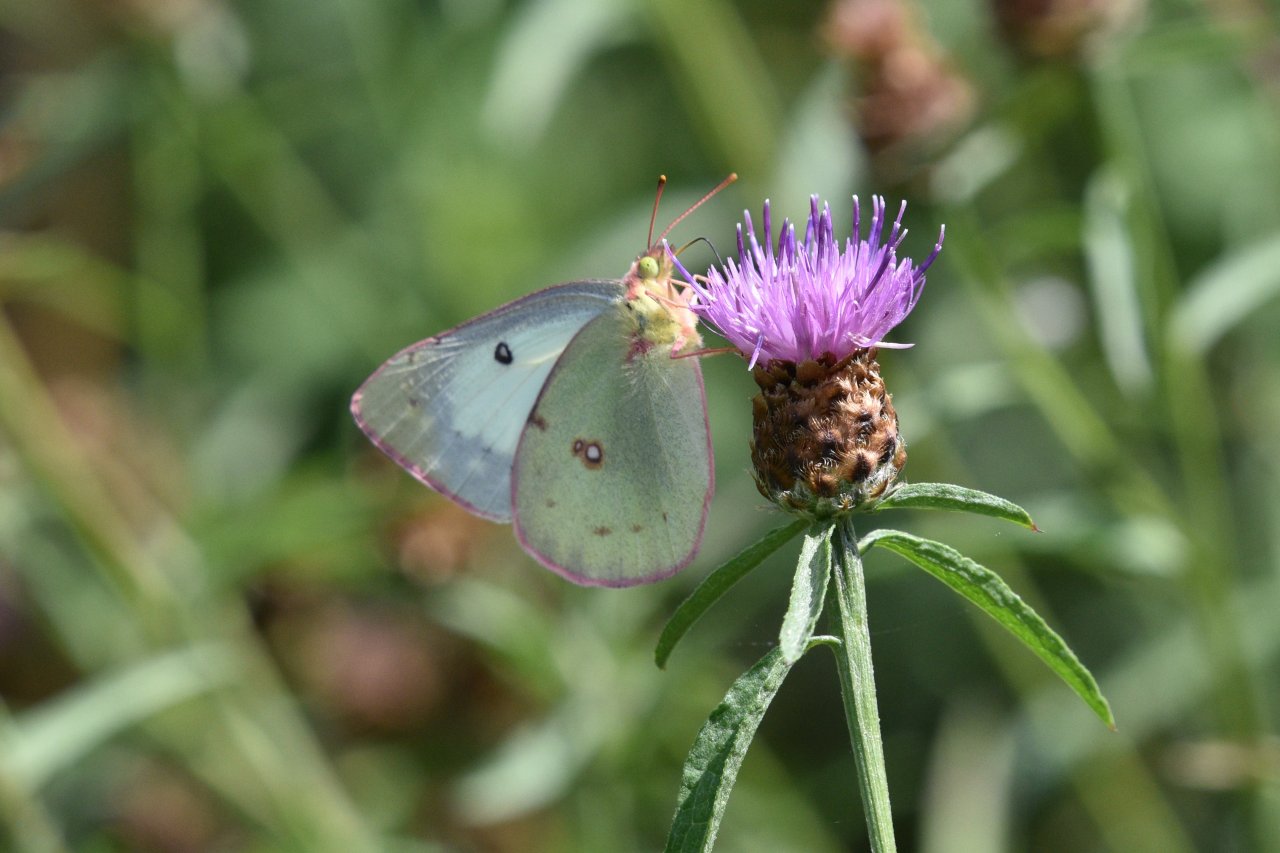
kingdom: Animalia
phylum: Arthropoda
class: Insecta
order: Lepidoptera
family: Pieridae
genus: Colias
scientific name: Colias philodice
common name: Clouded Sulphur
